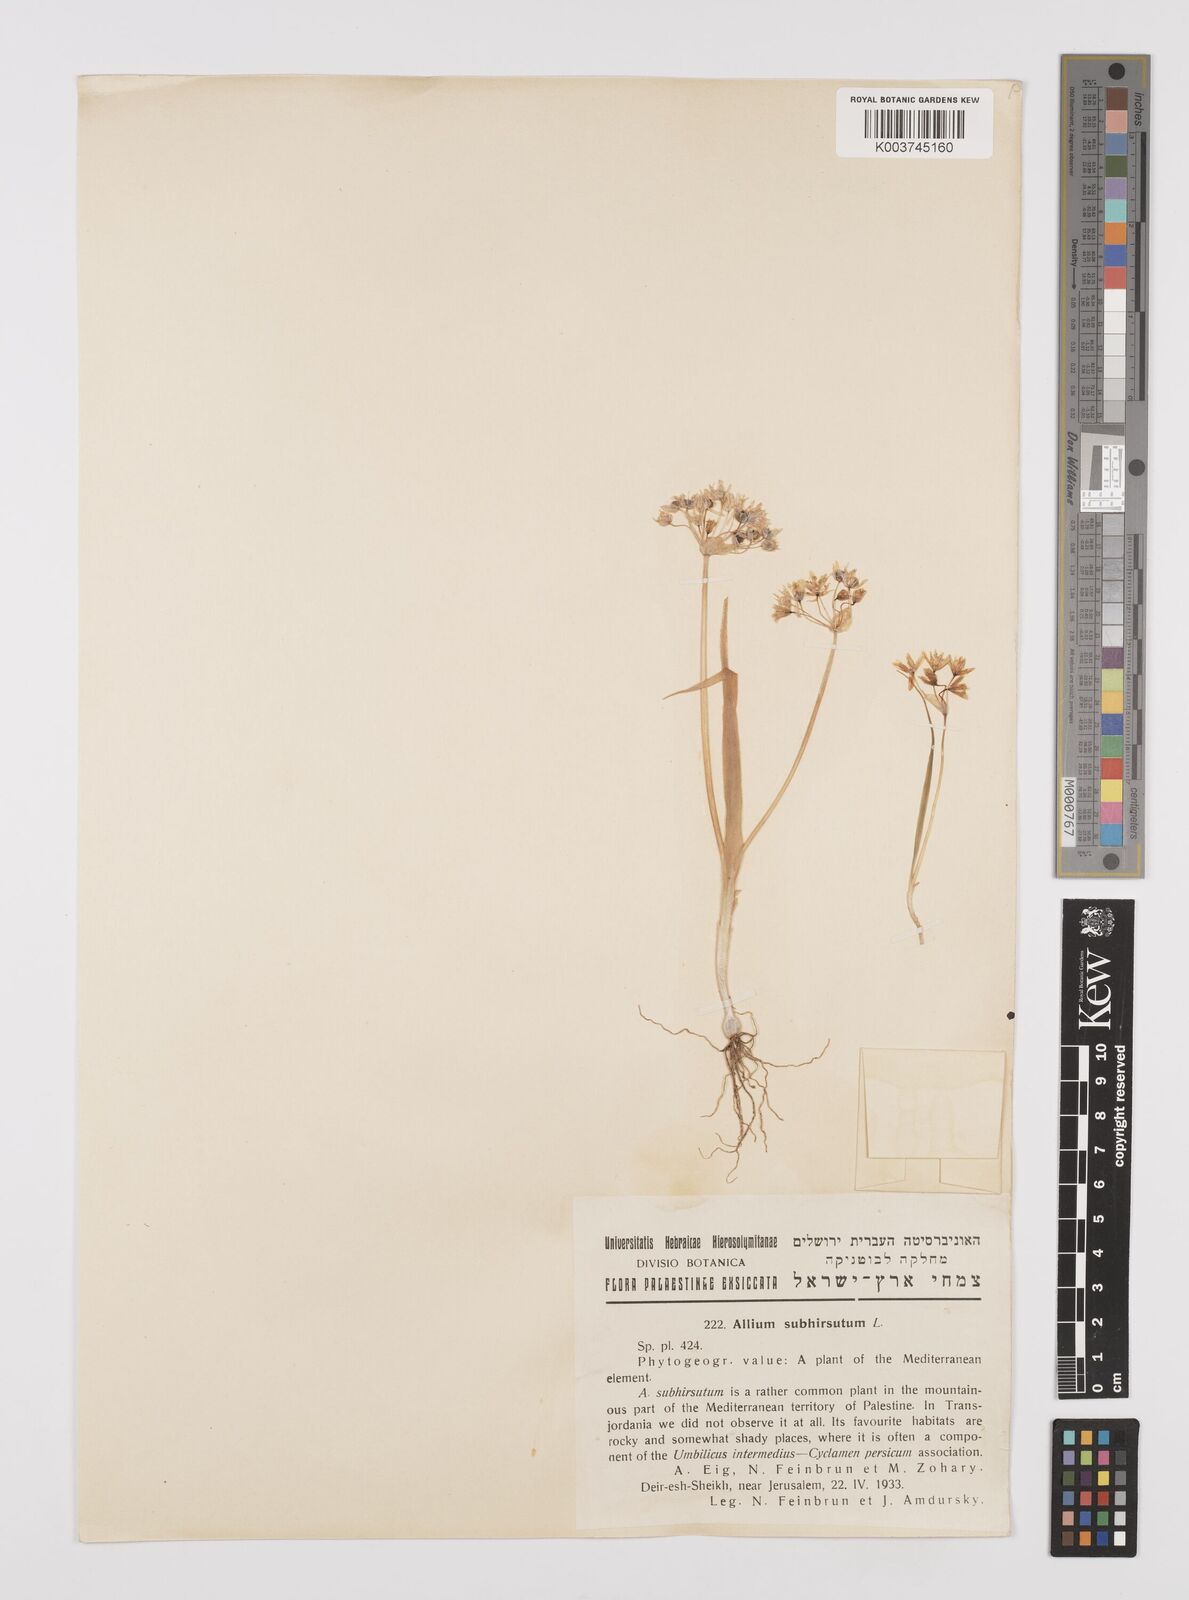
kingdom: Plantae
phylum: Tracheophyta
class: Liliopsida
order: Asparagales
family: Amaryllidaceae
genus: Allium
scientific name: Allium subhirsutum
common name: Hairy garlic
